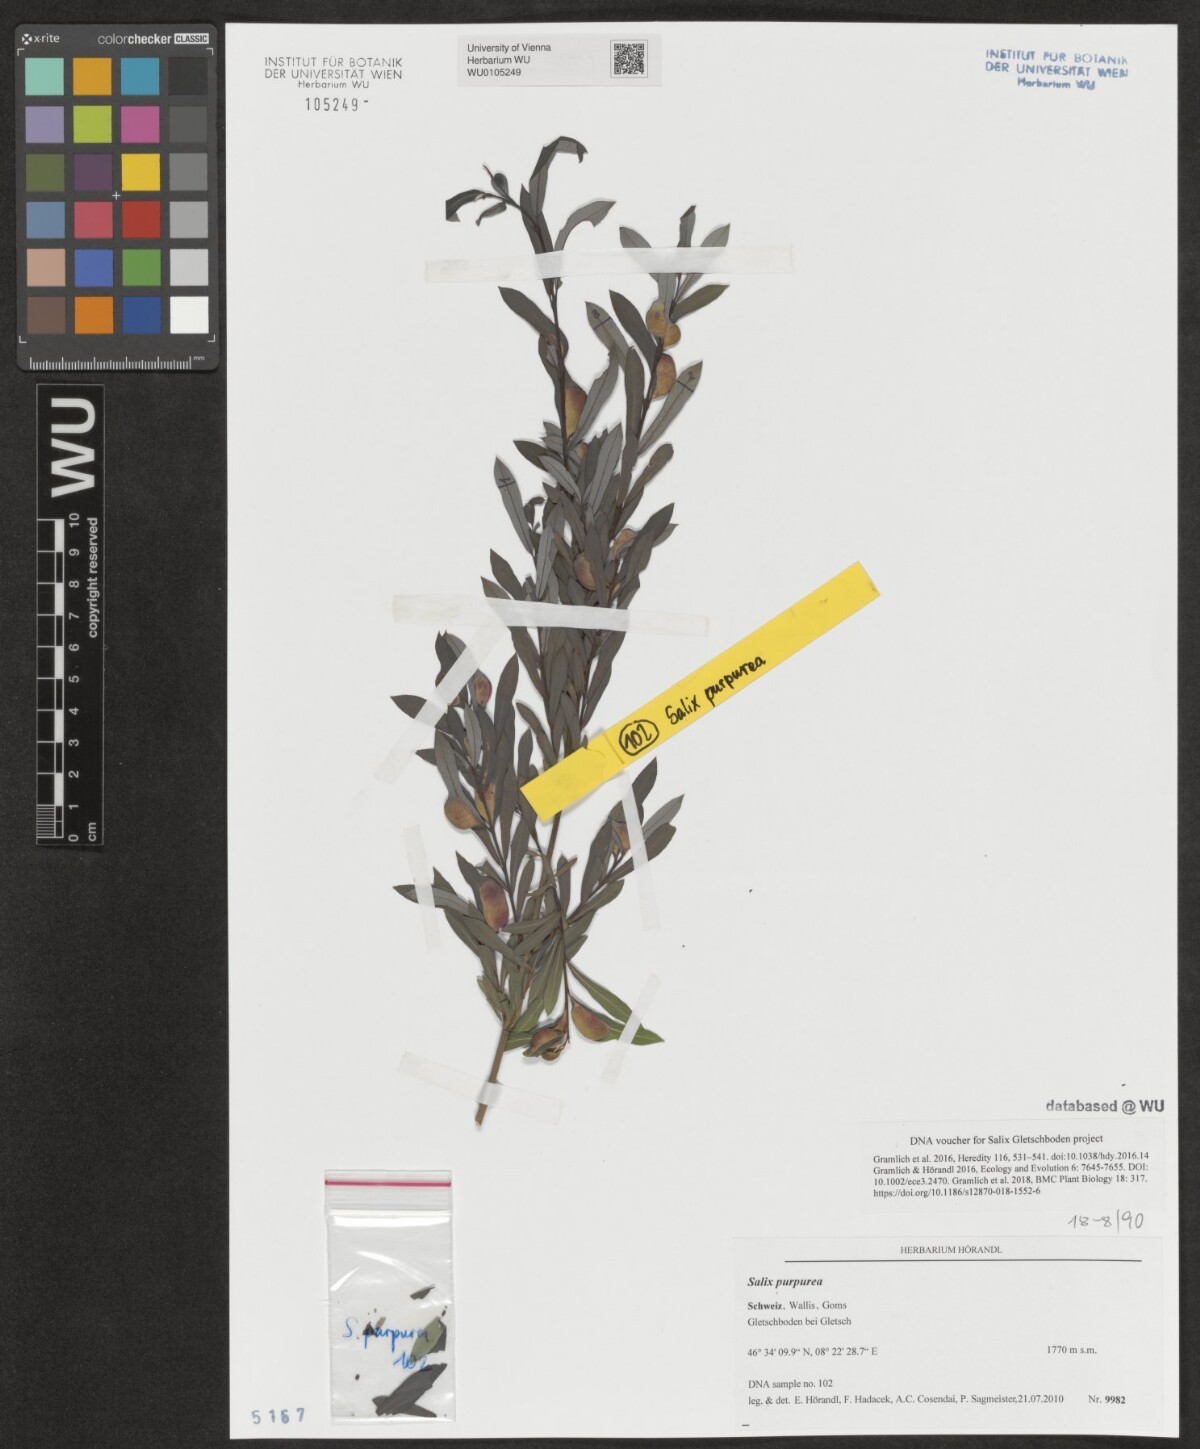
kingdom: Plantae
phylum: Tracheophyta
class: Magnoliopsida
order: Malpighiales
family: Salicaceae
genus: Salix
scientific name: Salix purpurea
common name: Purple willow
